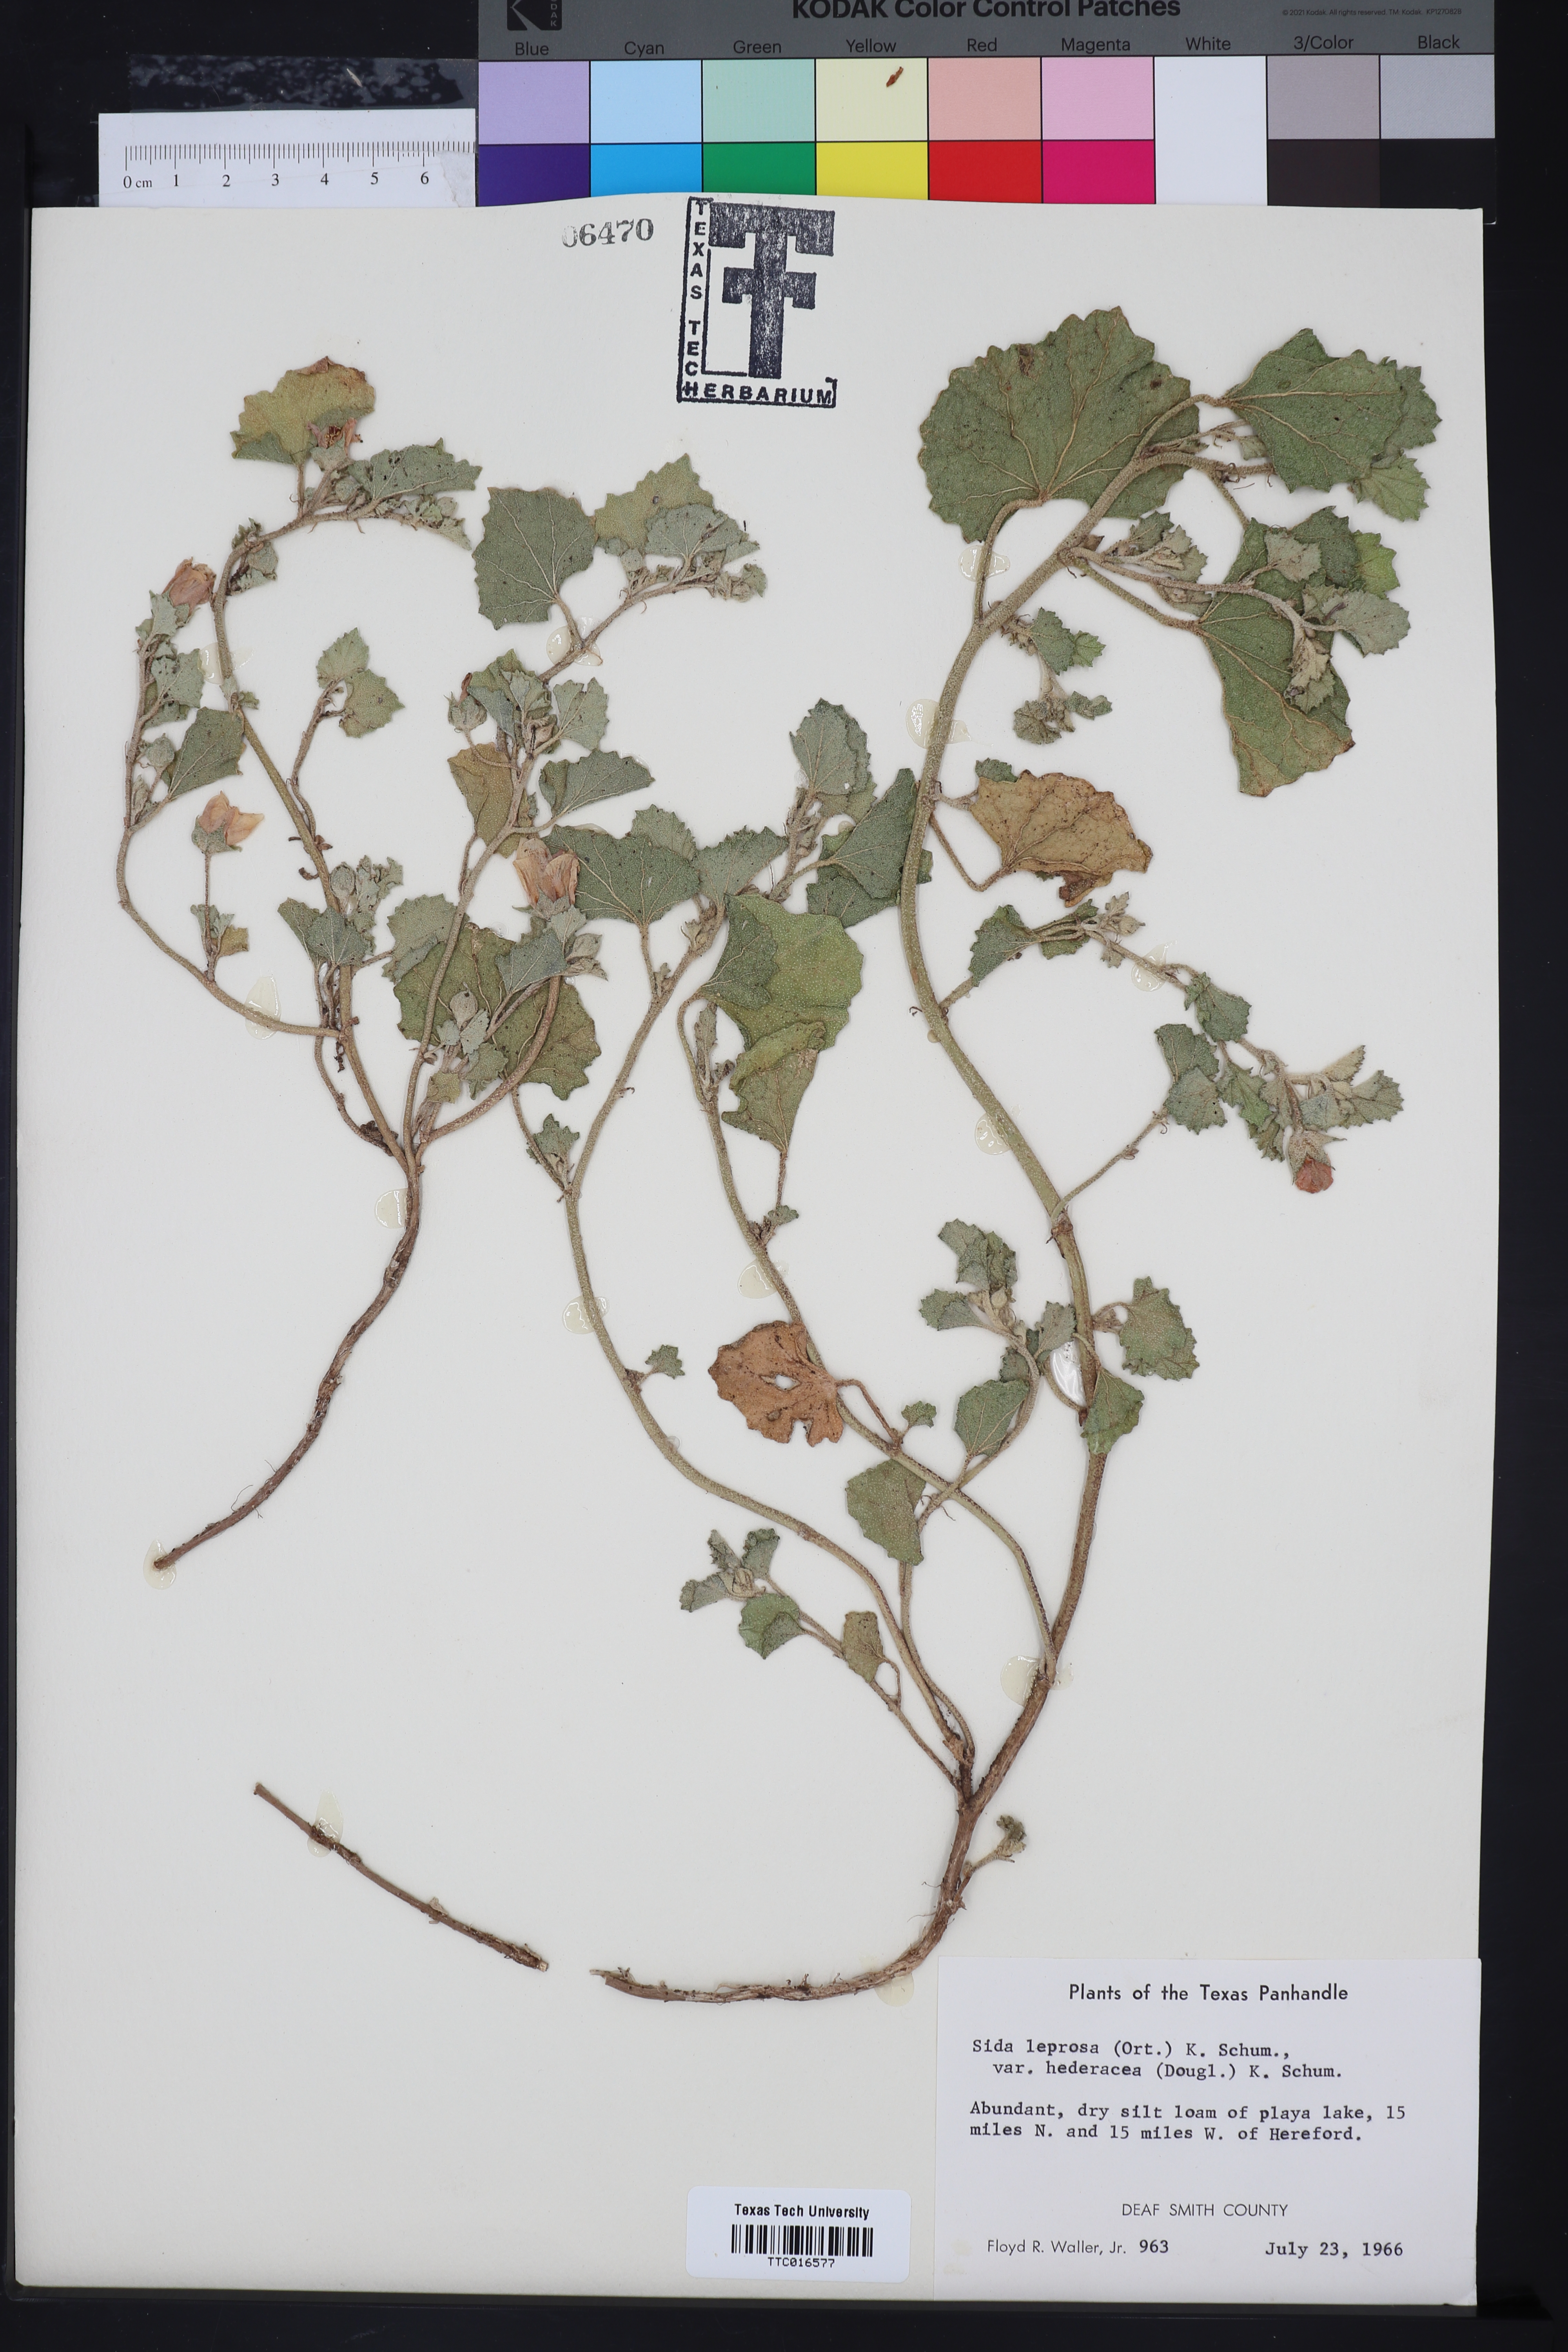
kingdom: Plantae
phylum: Tracheophyta
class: Magnoliopsida
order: Malvales
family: Malvaceae
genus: Malvella
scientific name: Malvella leprosa
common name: Alkali-mallow
